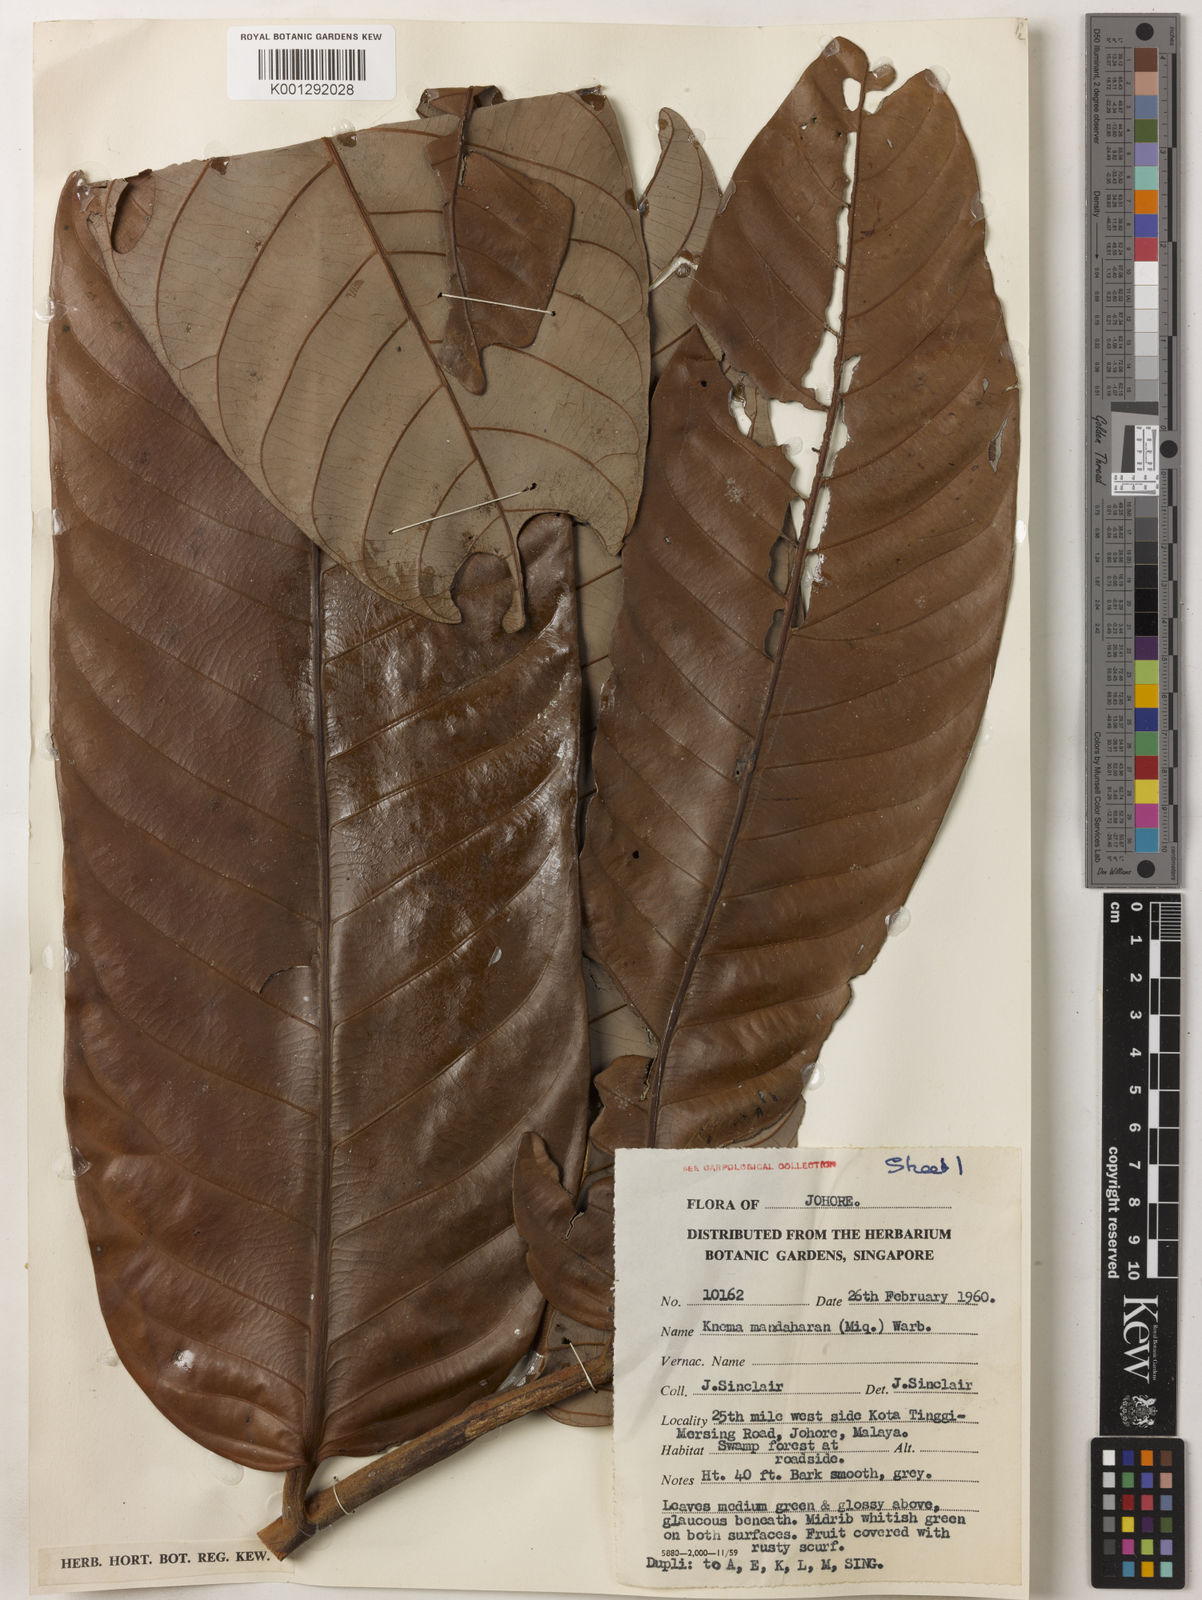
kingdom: Plantae
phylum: Tracheophyta
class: Magnoliopsida
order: Magnoliales
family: Myristicaceae
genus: Knema
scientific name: Knema mandaharan
